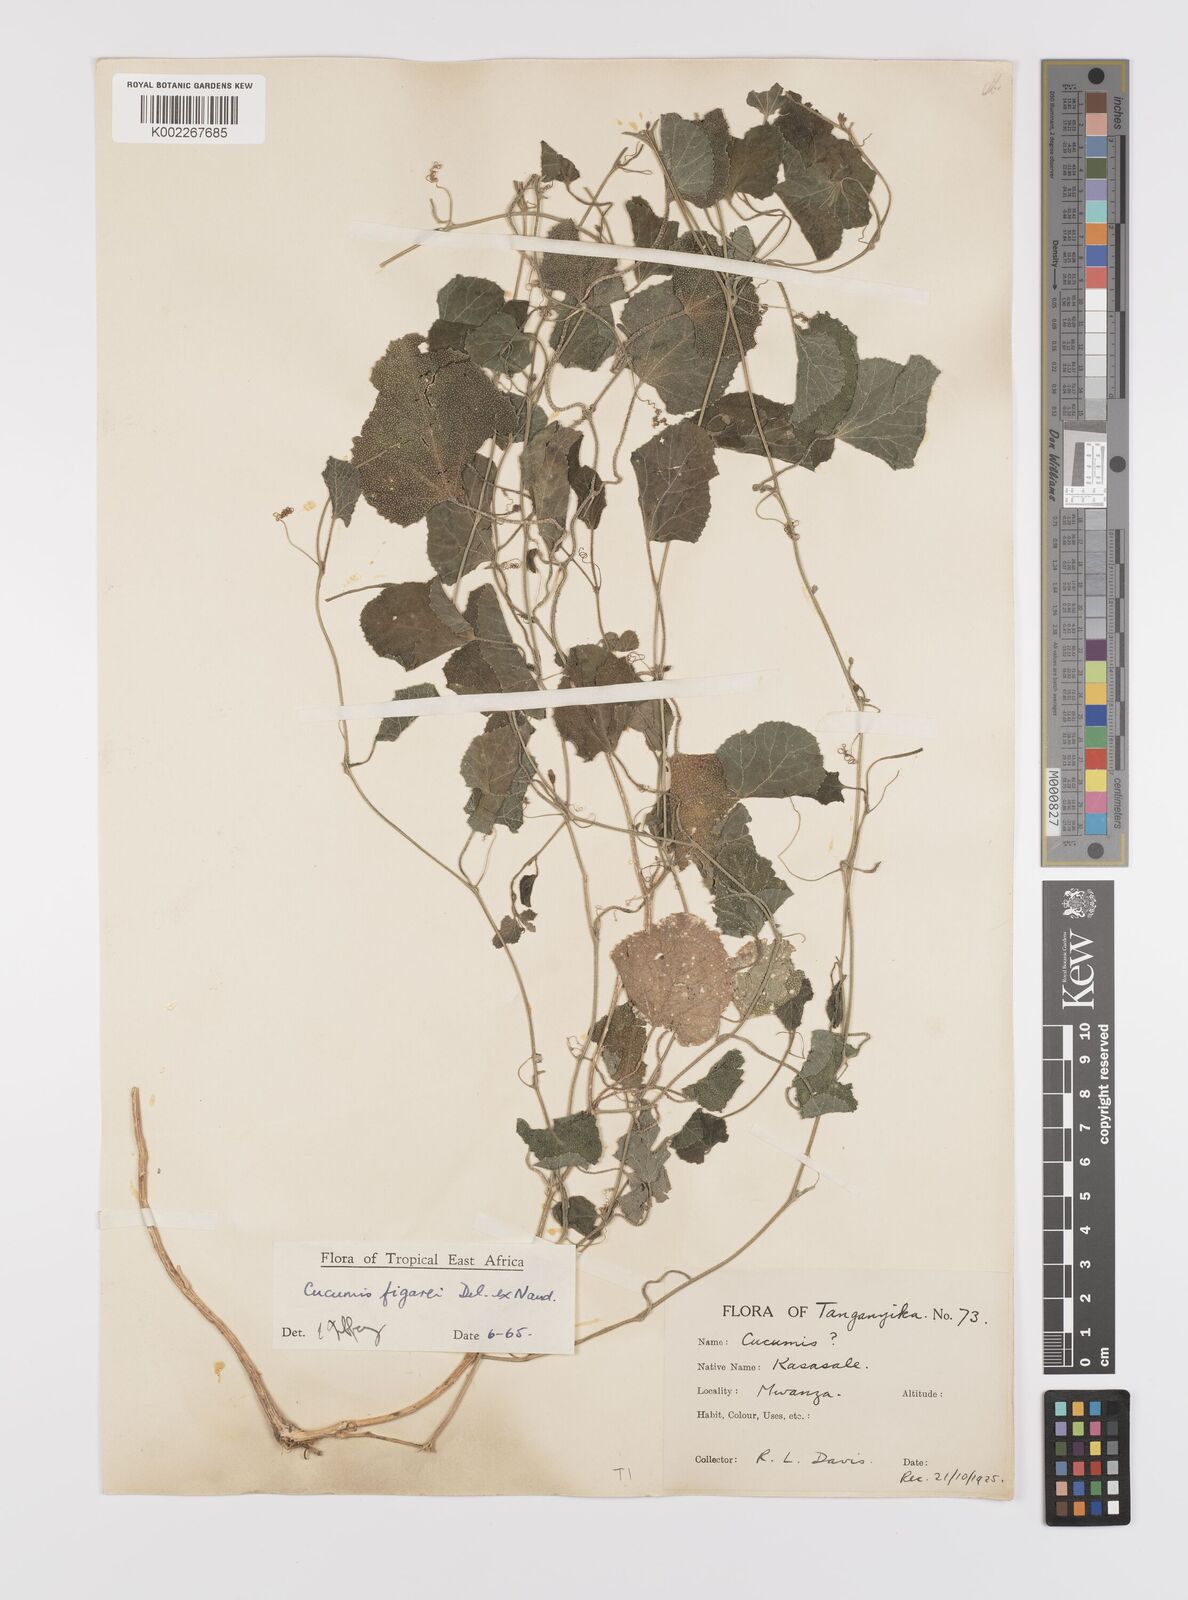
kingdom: Plantae
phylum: Tracheophyta
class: Magnoliopsida
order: Cucurbitales
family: Cucurbitaceae
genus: Cucumis
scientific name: Cucumis
